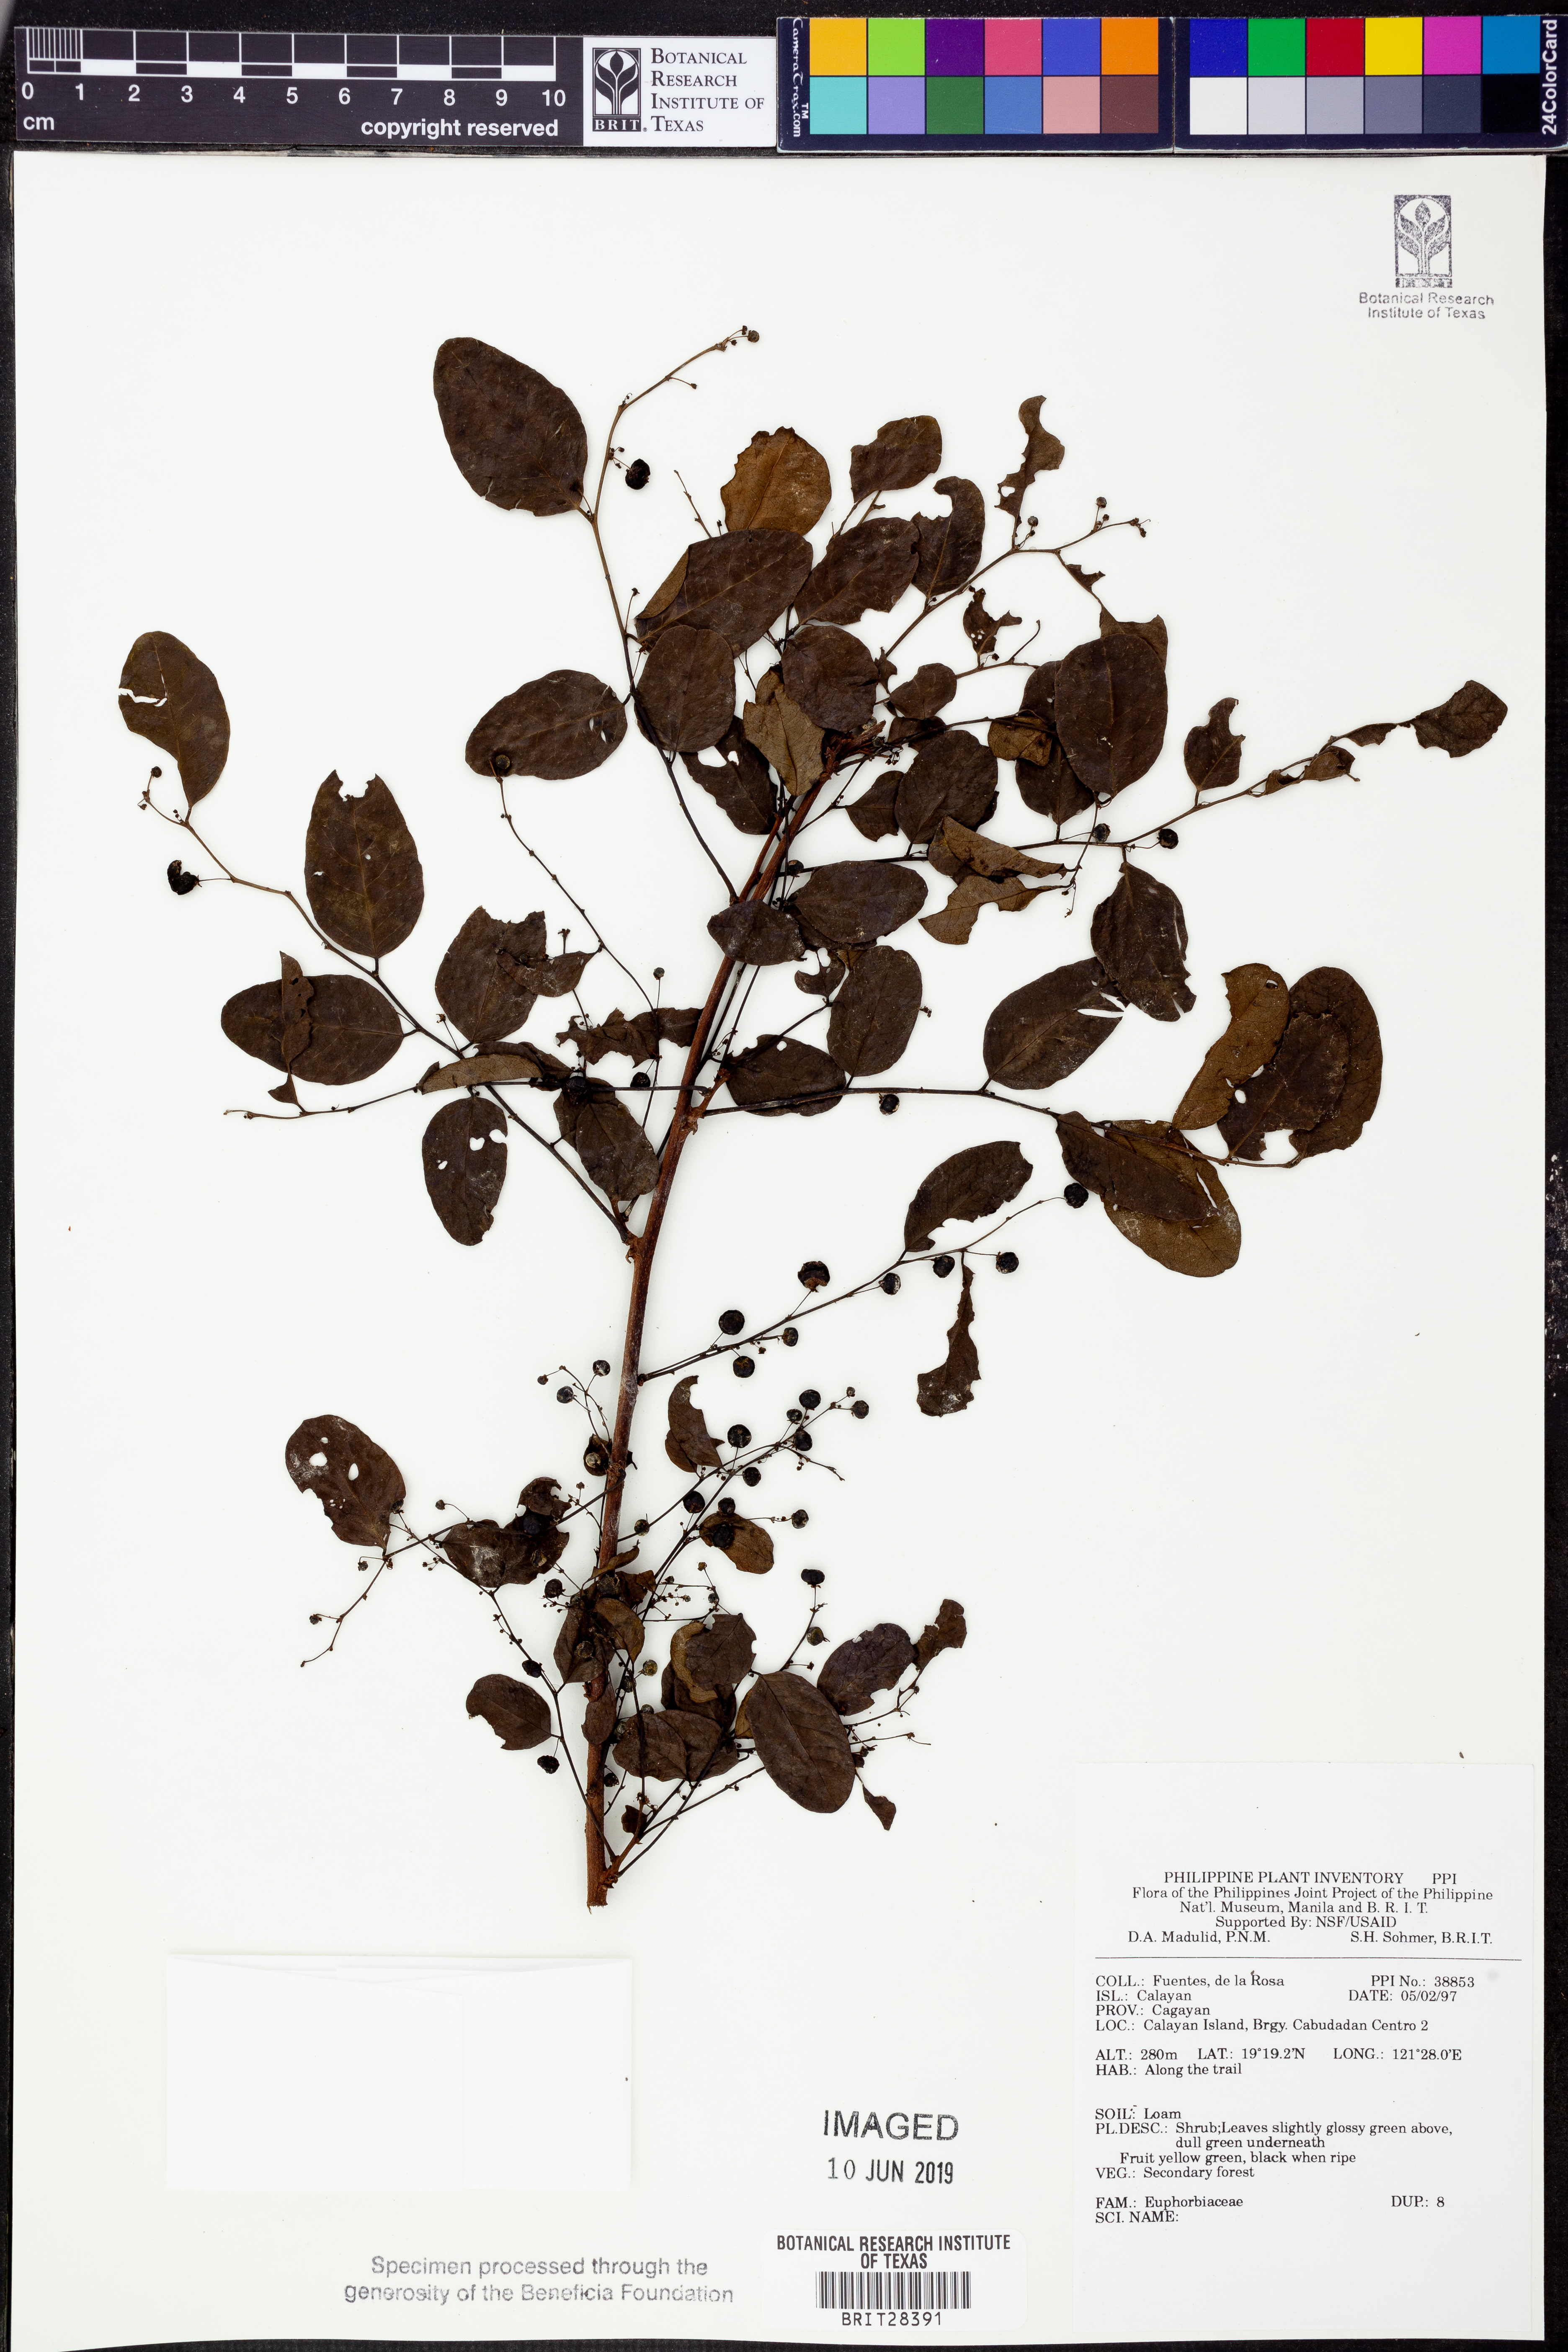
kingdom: Plantae
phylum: Tracheophyta
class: Magnoliopsida
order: Malpighiales
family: Euphorbiaceae
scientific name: Euphorbiaceae
